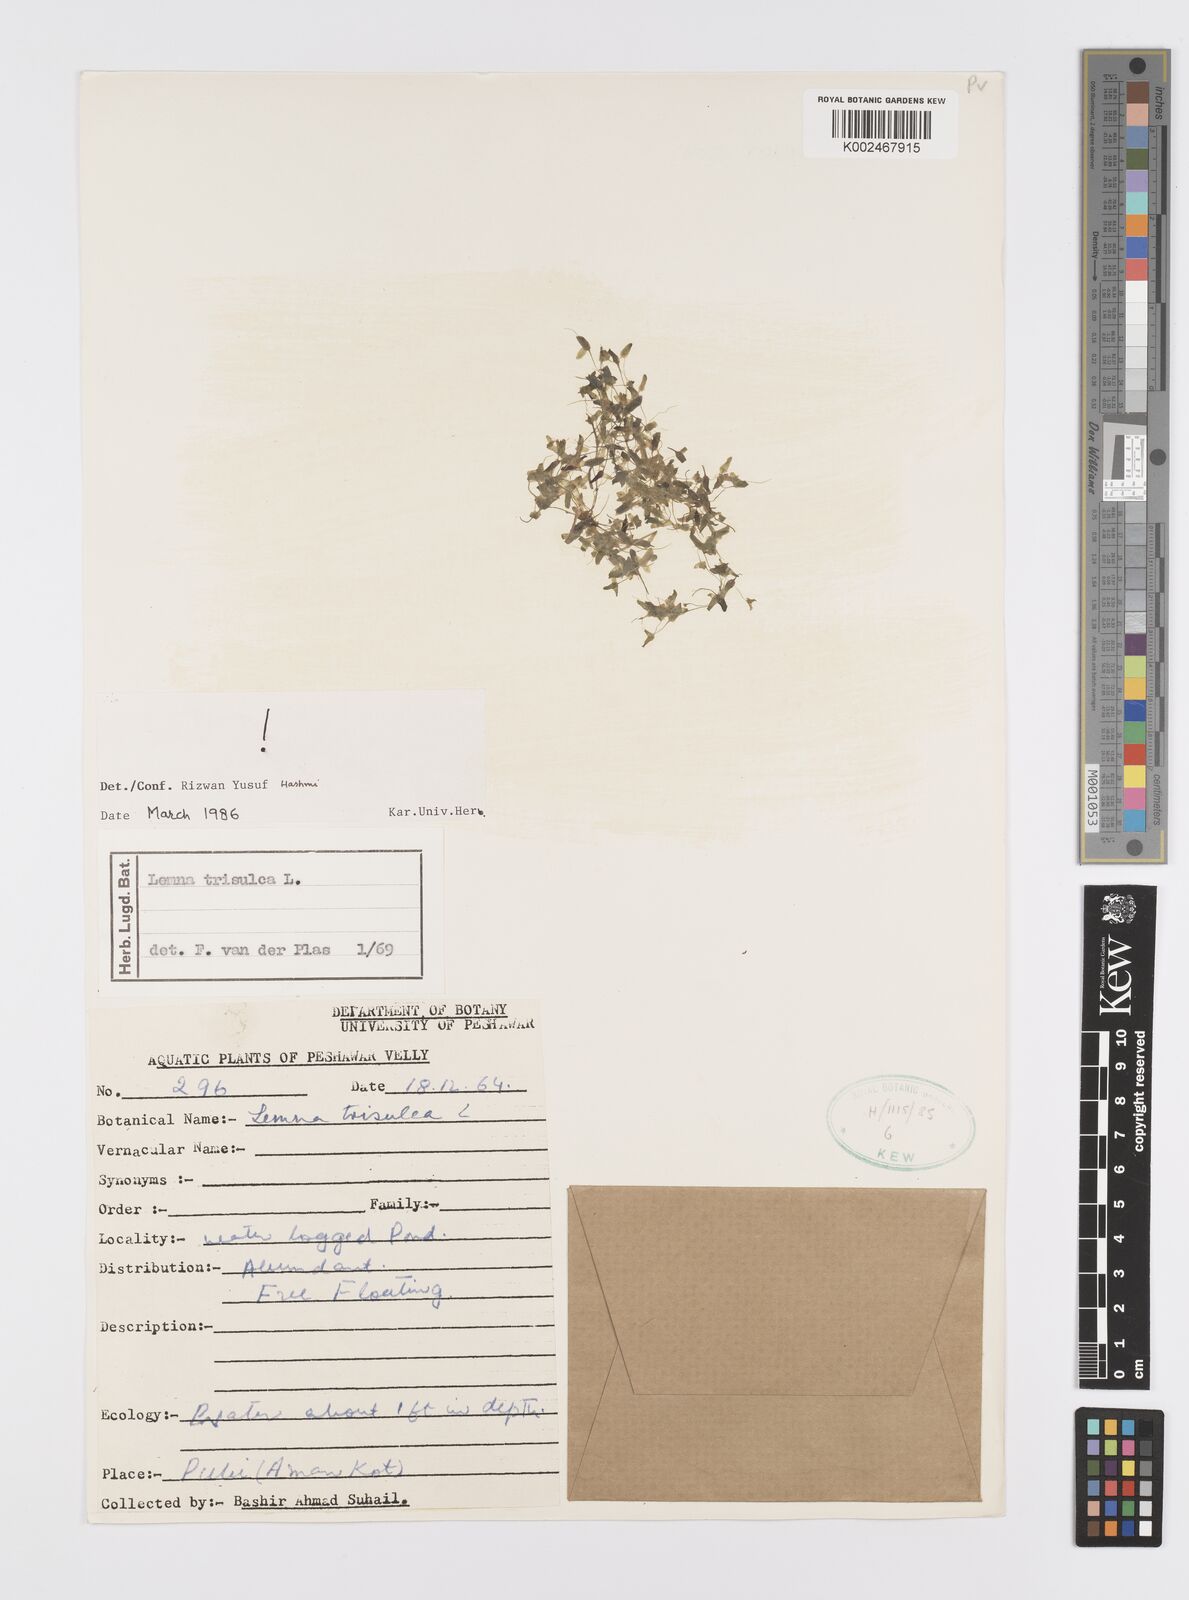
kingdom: Plantae
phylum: Tracheophyta
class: Liliopsida
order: Alismatales
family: Araceae
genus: Lemna
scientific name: Lemna trisulca
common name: Ivy-leaved duckweed
